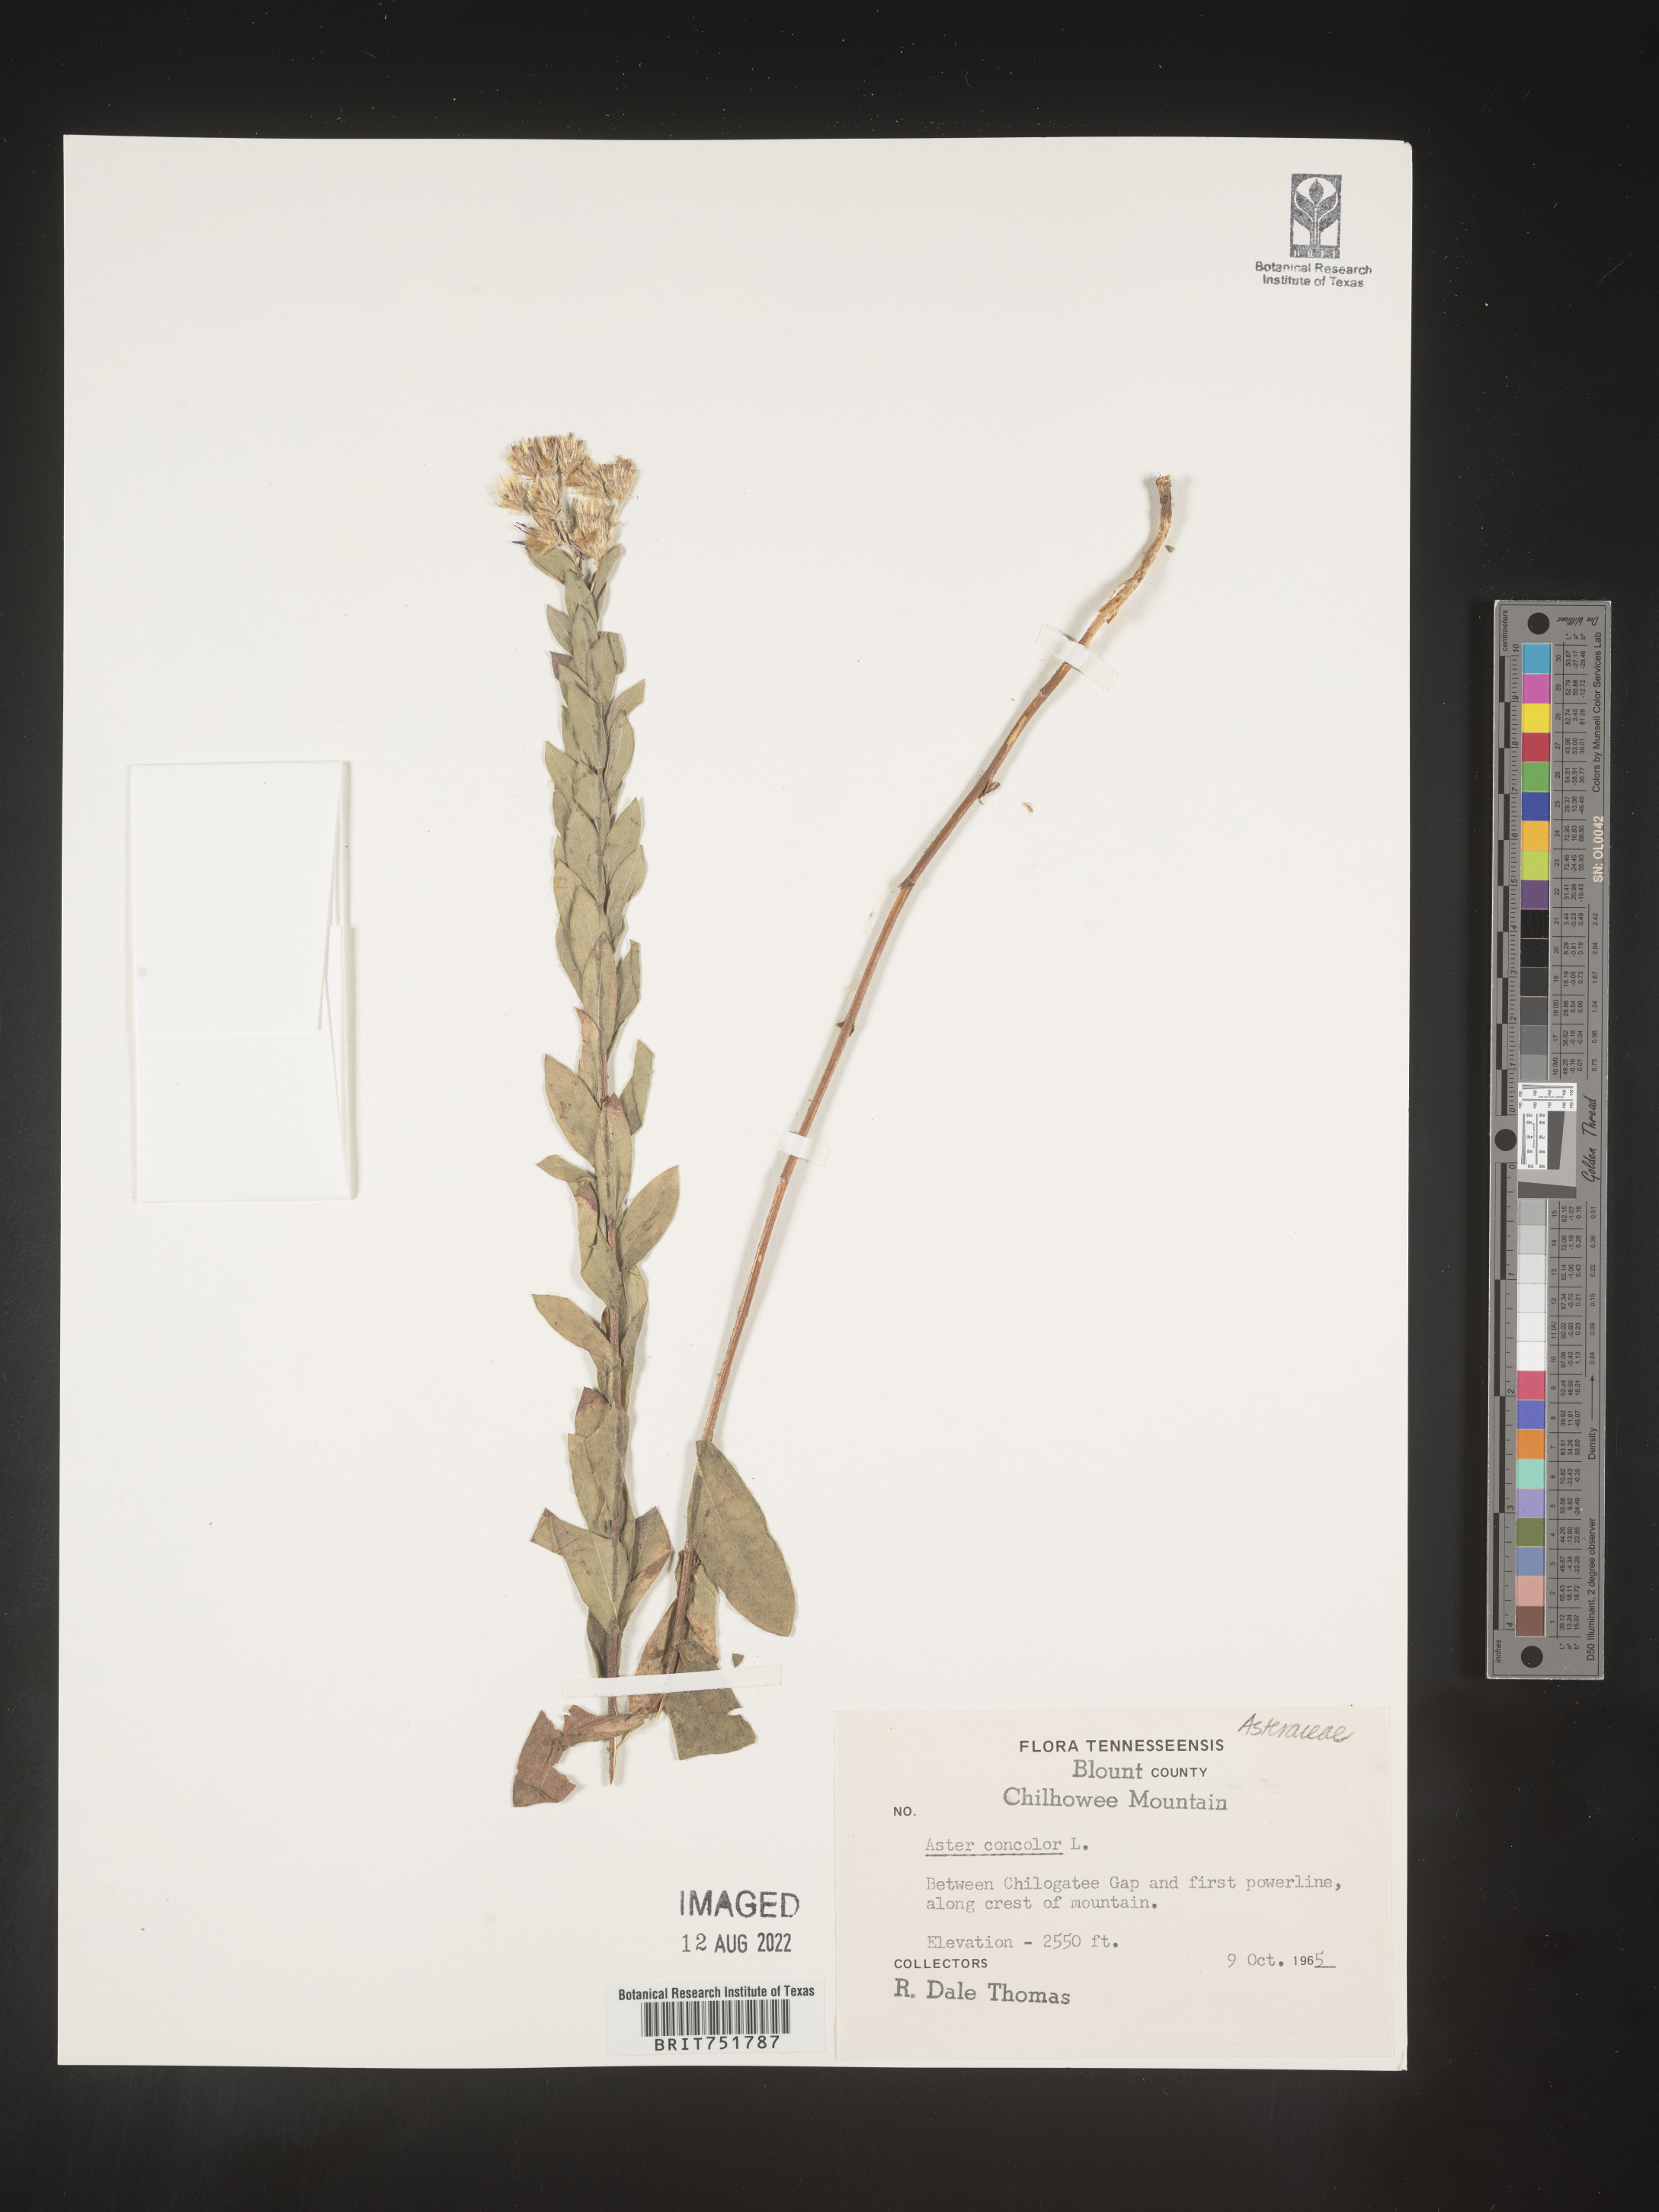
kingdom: Plantae
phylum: Tracheophyta
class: Magnoliopsida
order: Asterales
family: Asteraceae
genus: Symphyotrichum
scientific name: Symphyotrichum concolor
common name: Eastern silver aster
